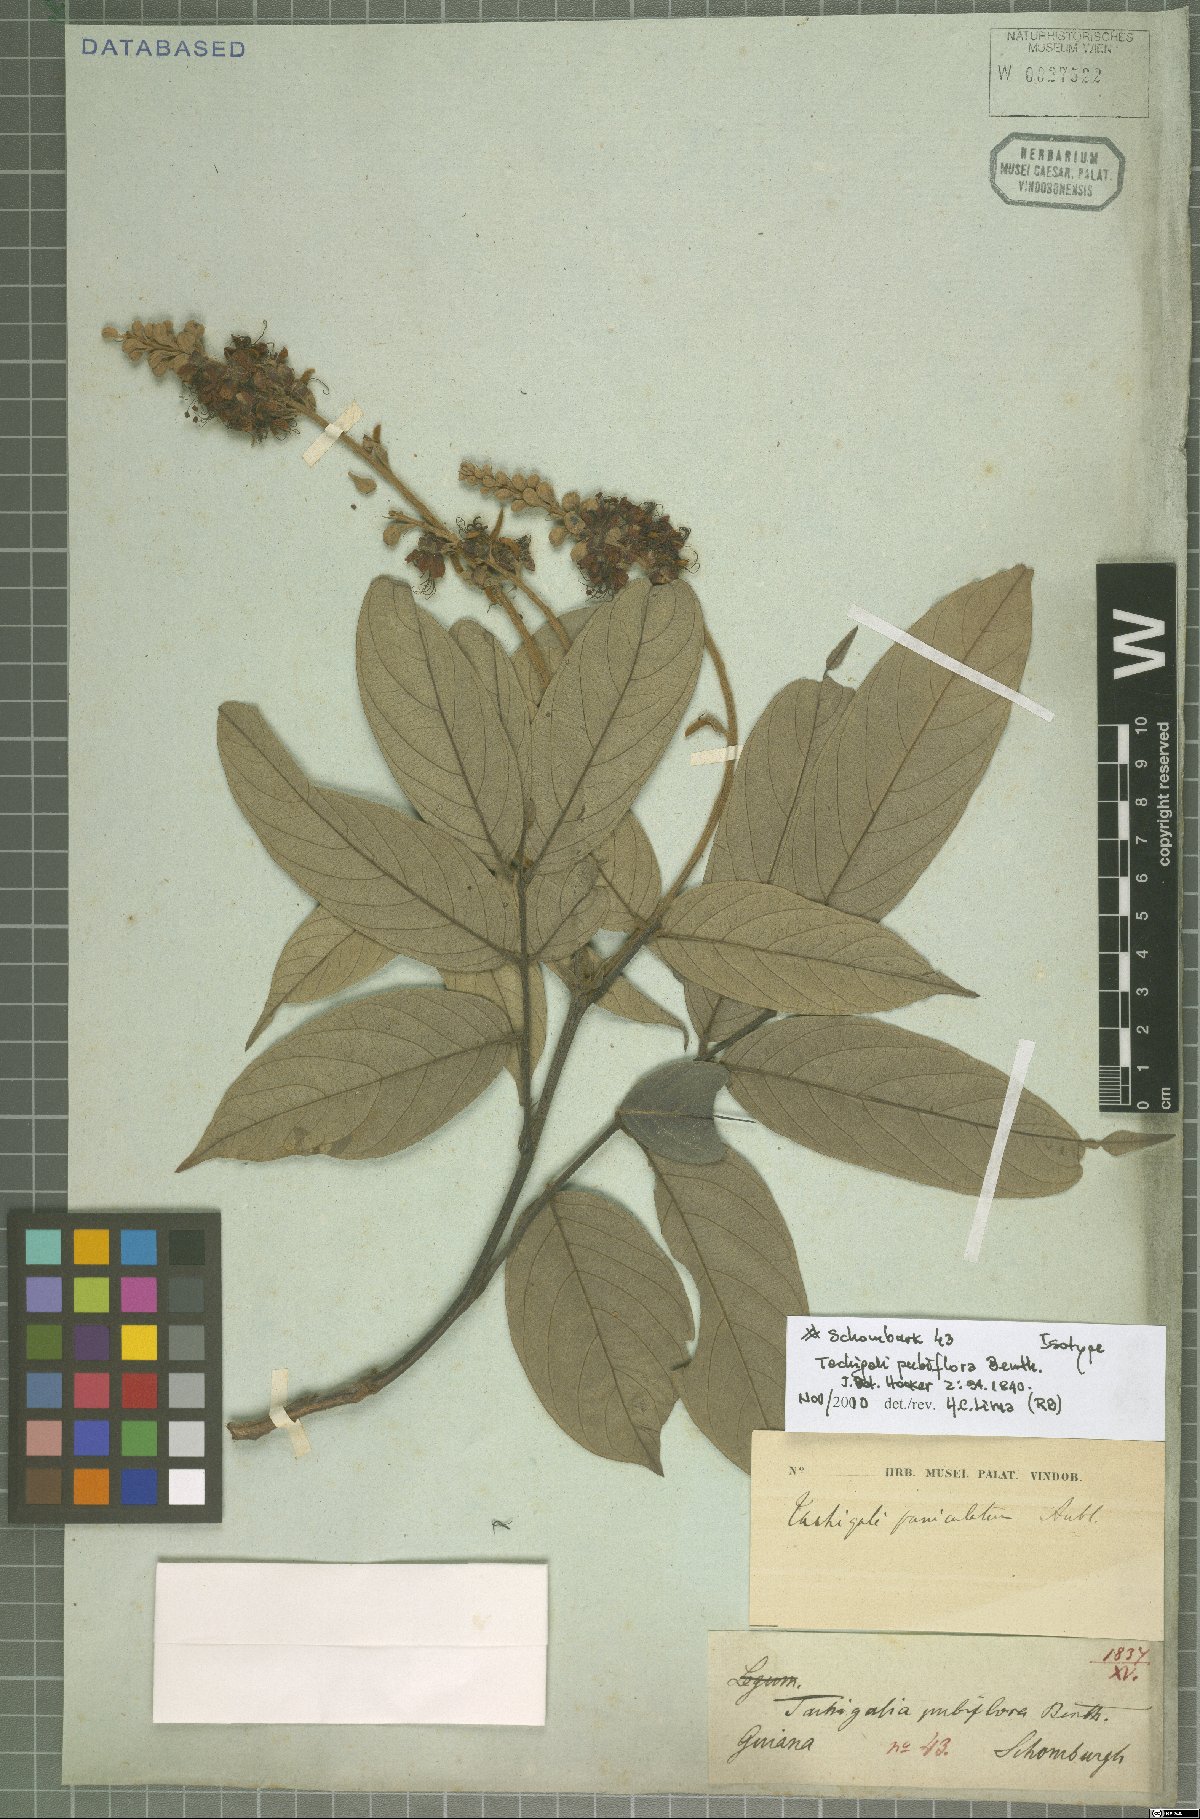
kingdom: Plantae
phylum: Tracheophyta
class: Magnoliopsida
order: Fabales
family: Fabaceae
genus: Tachigali
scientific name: Tachigali pubiflora
